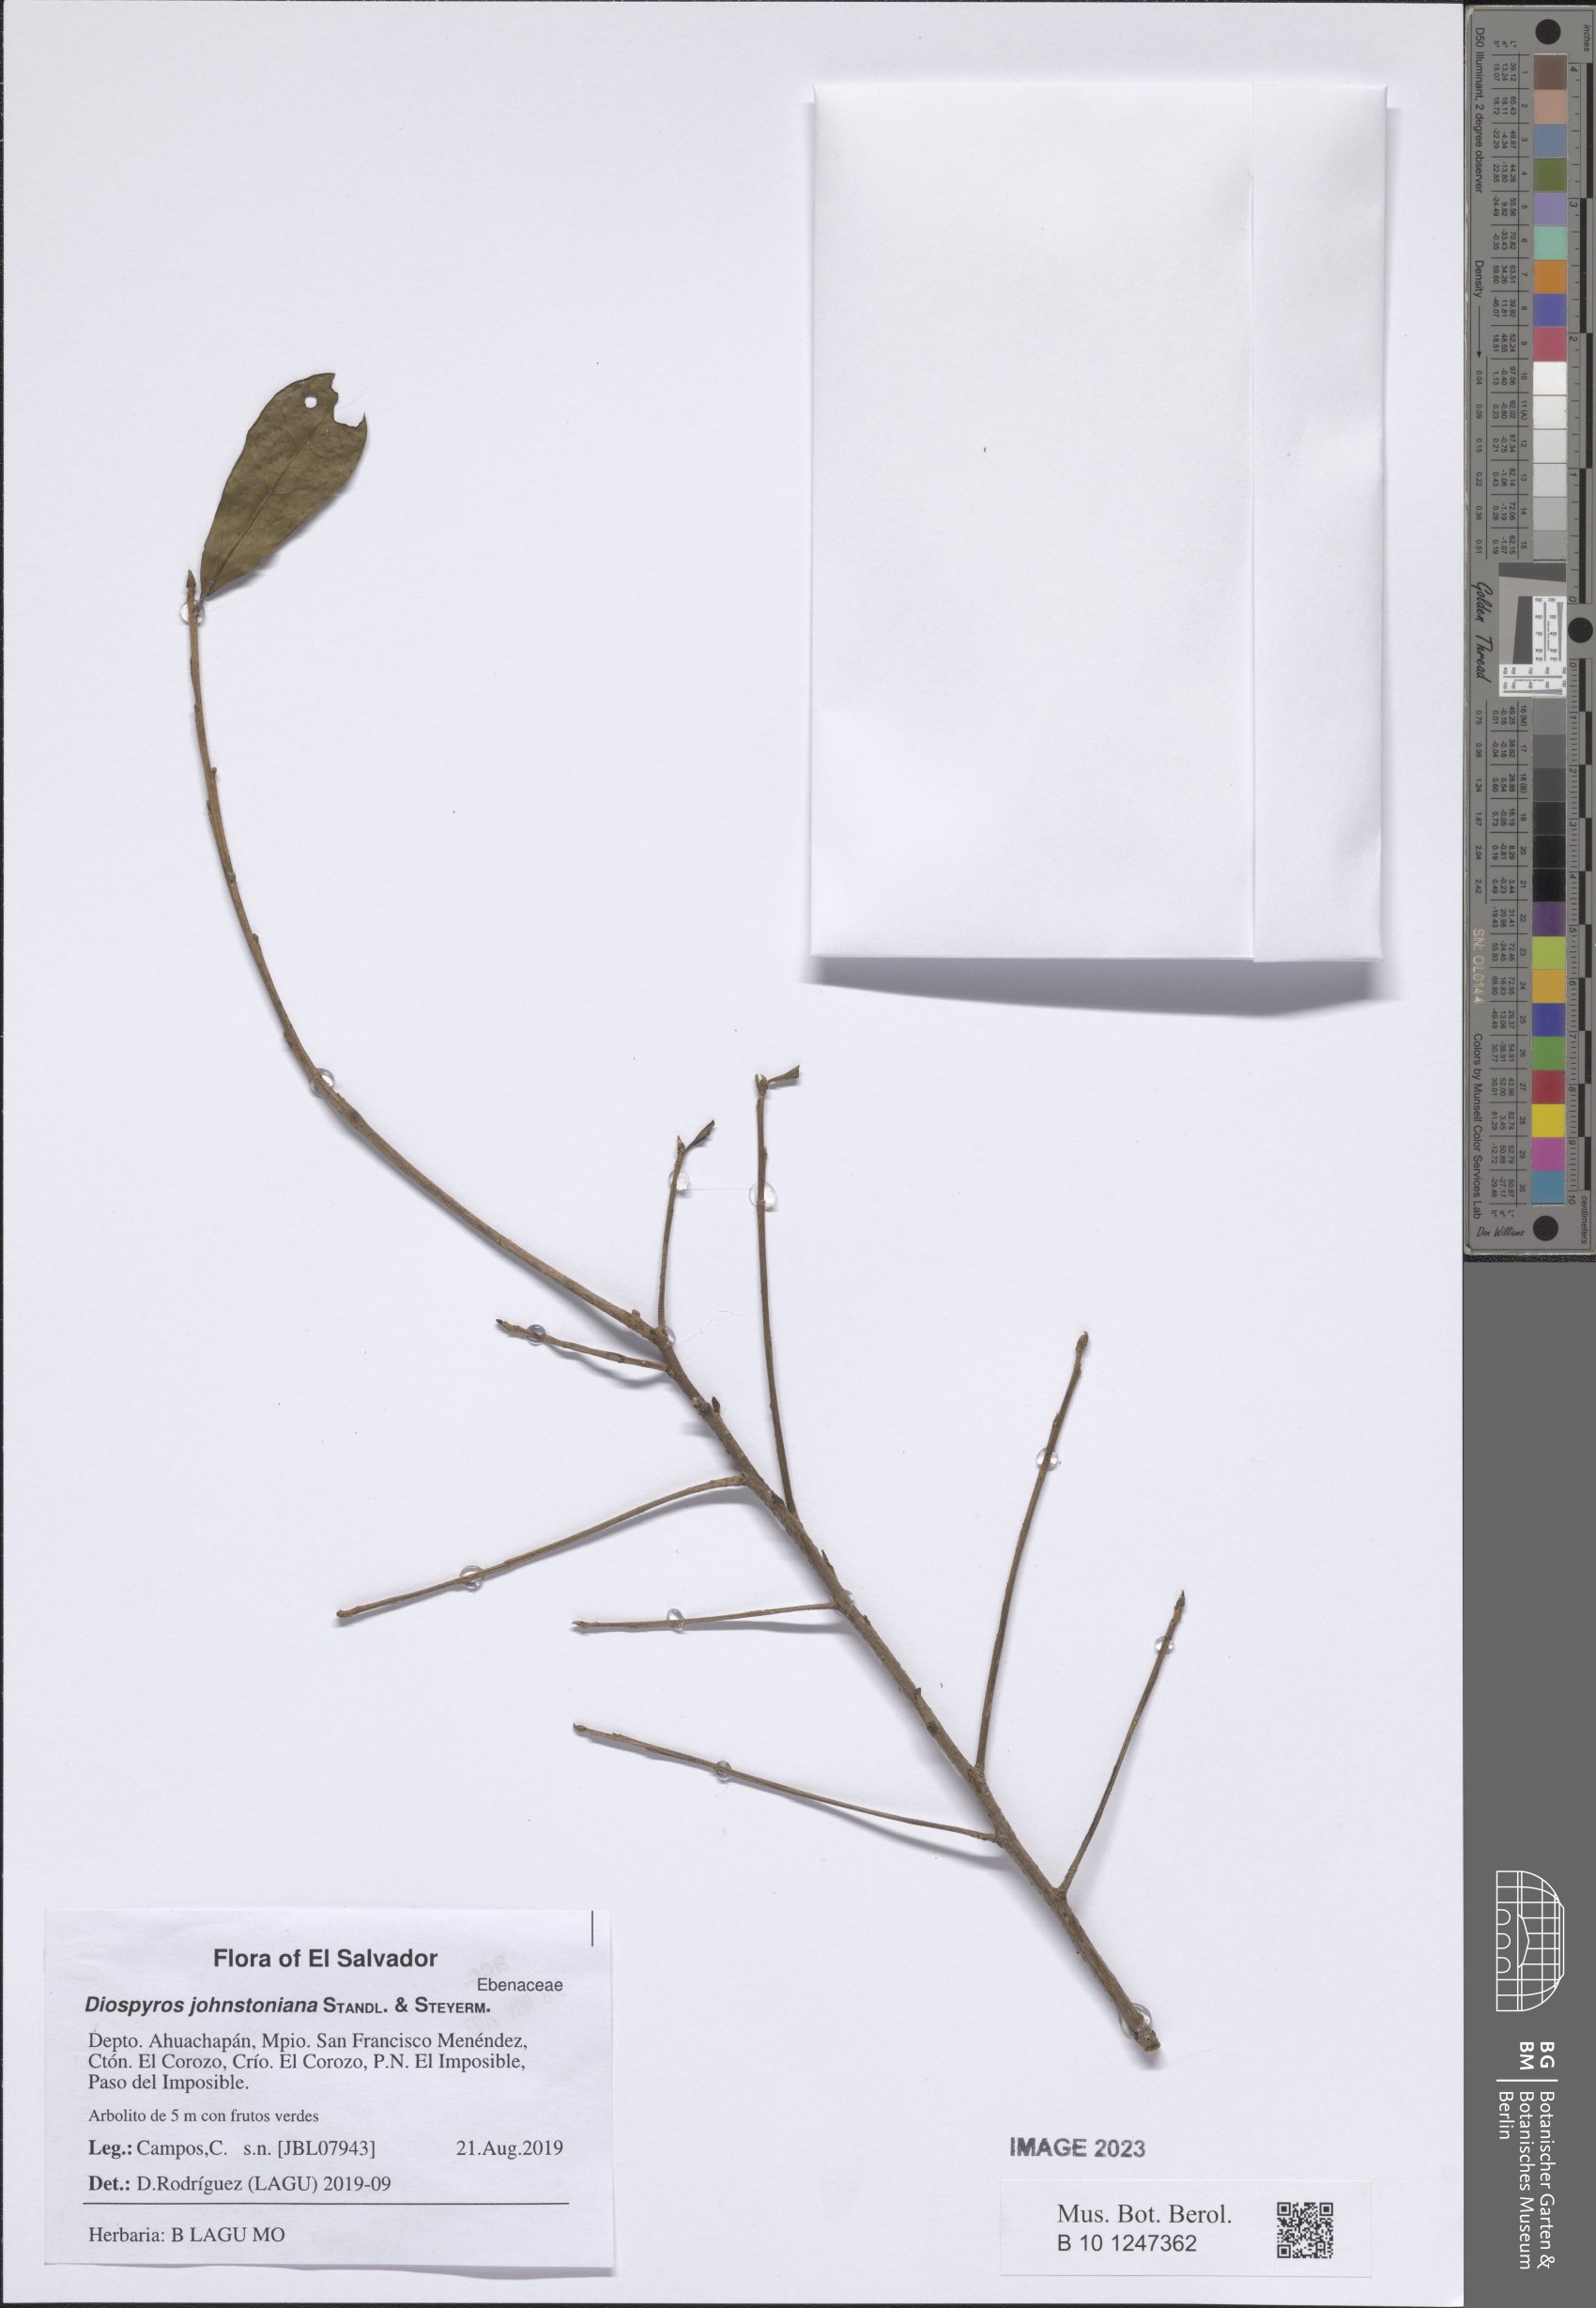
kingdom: Plantae
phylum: Tracheophyta
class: Magnoliopsida
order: Ericales
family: Ebenaceae
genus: Diospyros
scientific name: Diospyros johnstoniana
